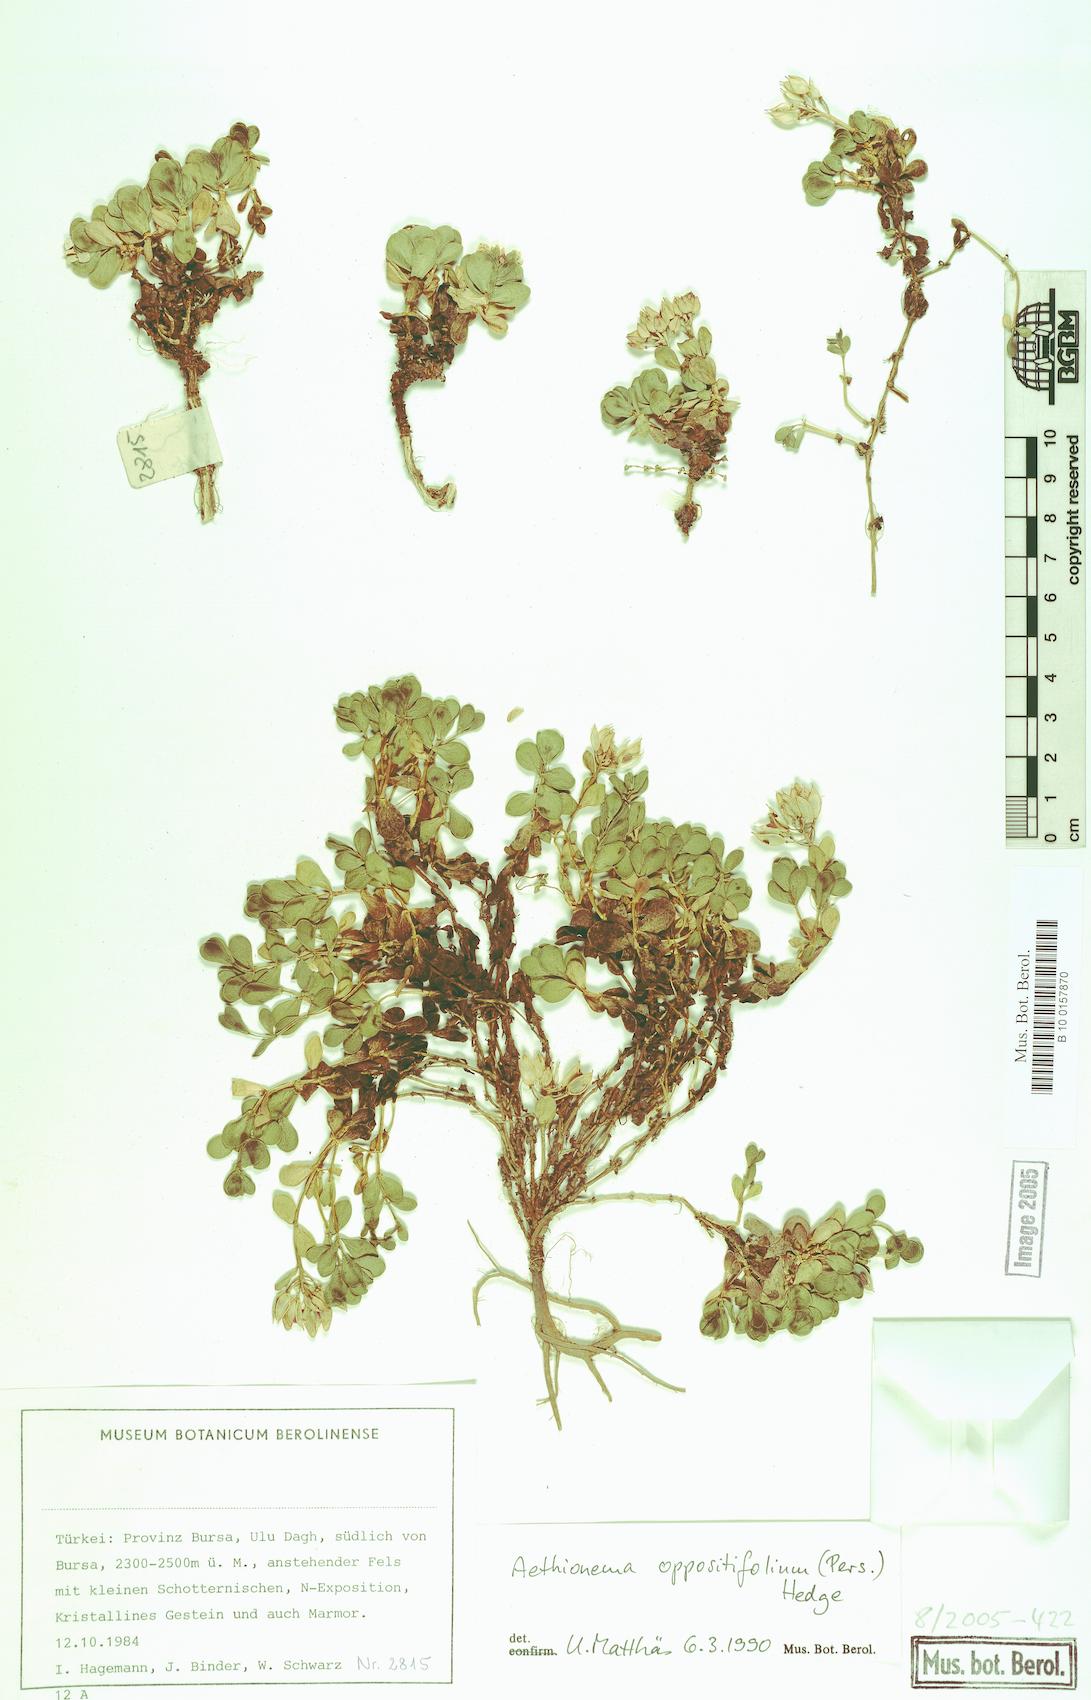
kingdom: Plantae
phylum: Tracheophyta
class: Magnoliopsida
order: Brassicales
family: Brassicaceae
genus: Noccaea
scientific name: Noccaea oppositifolia
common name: Twin-leaf stone-cress
